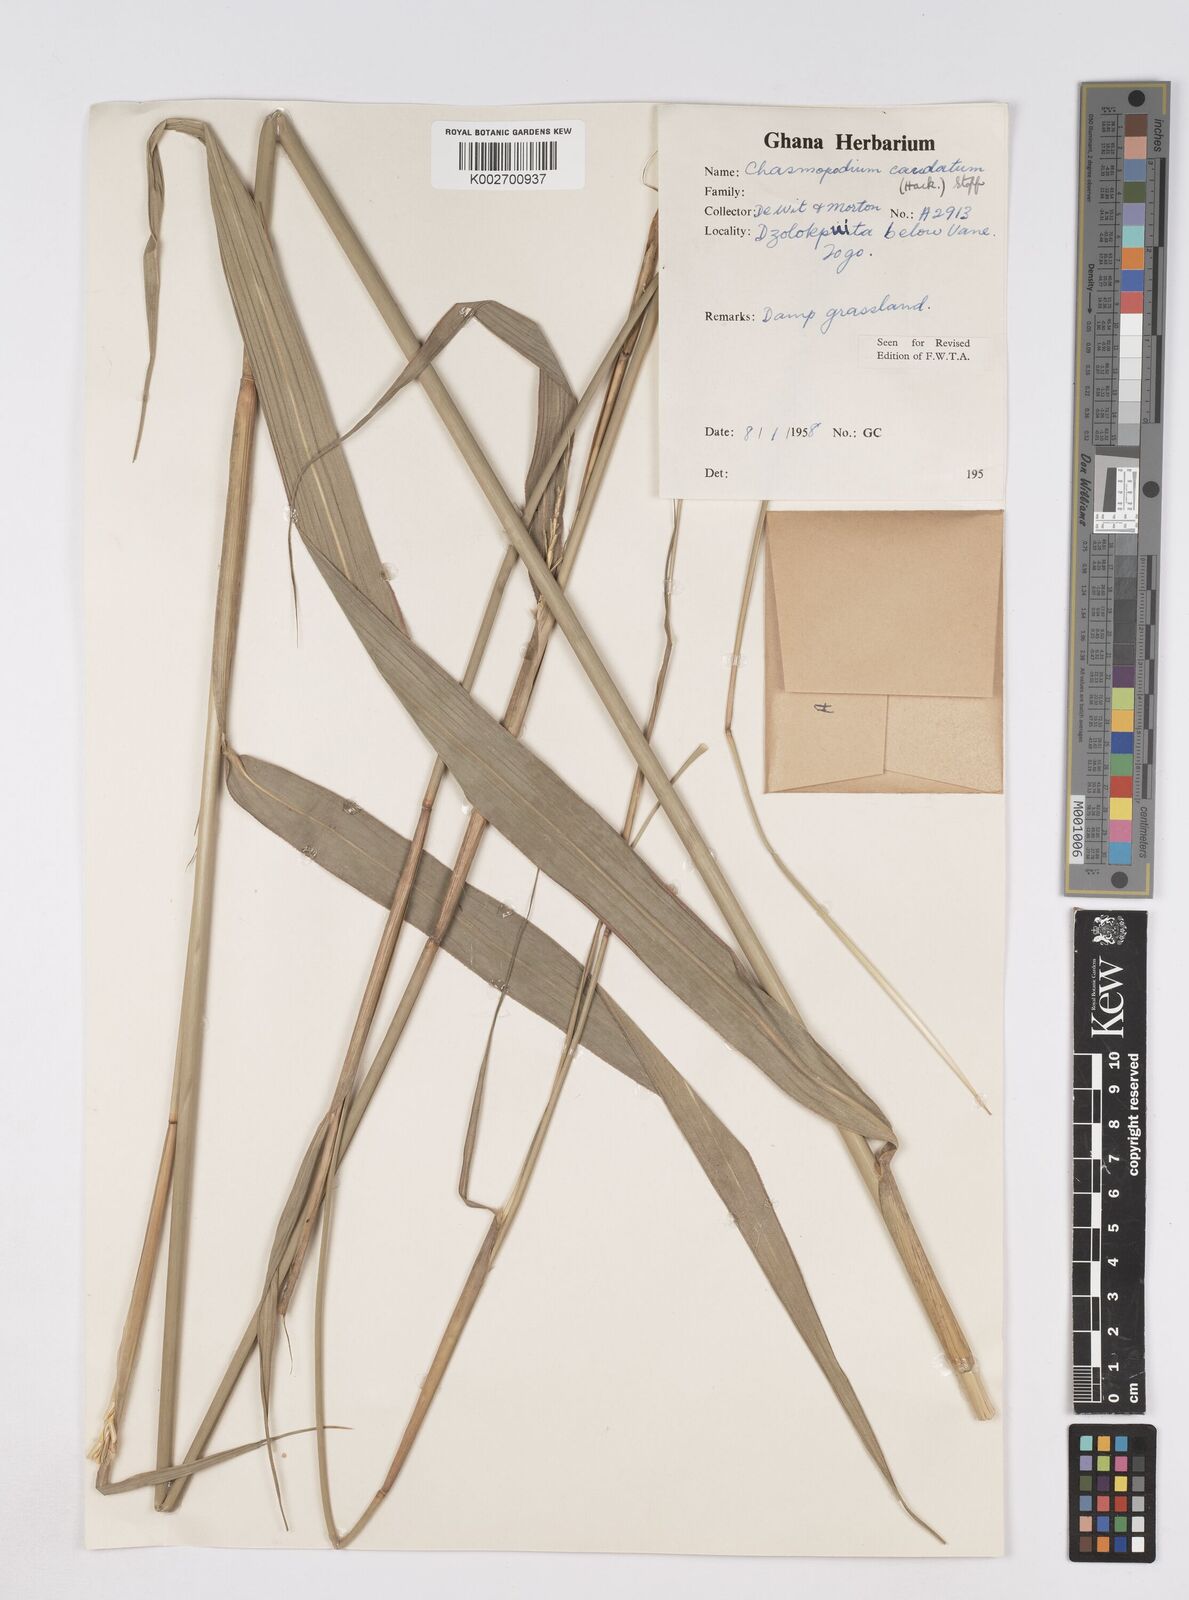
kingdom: Plantae
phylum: Tracheophyta
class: Liliopsida
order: Poales
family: Poaceae
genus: Chasmopodium
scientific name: Chasmopodium afzelii
